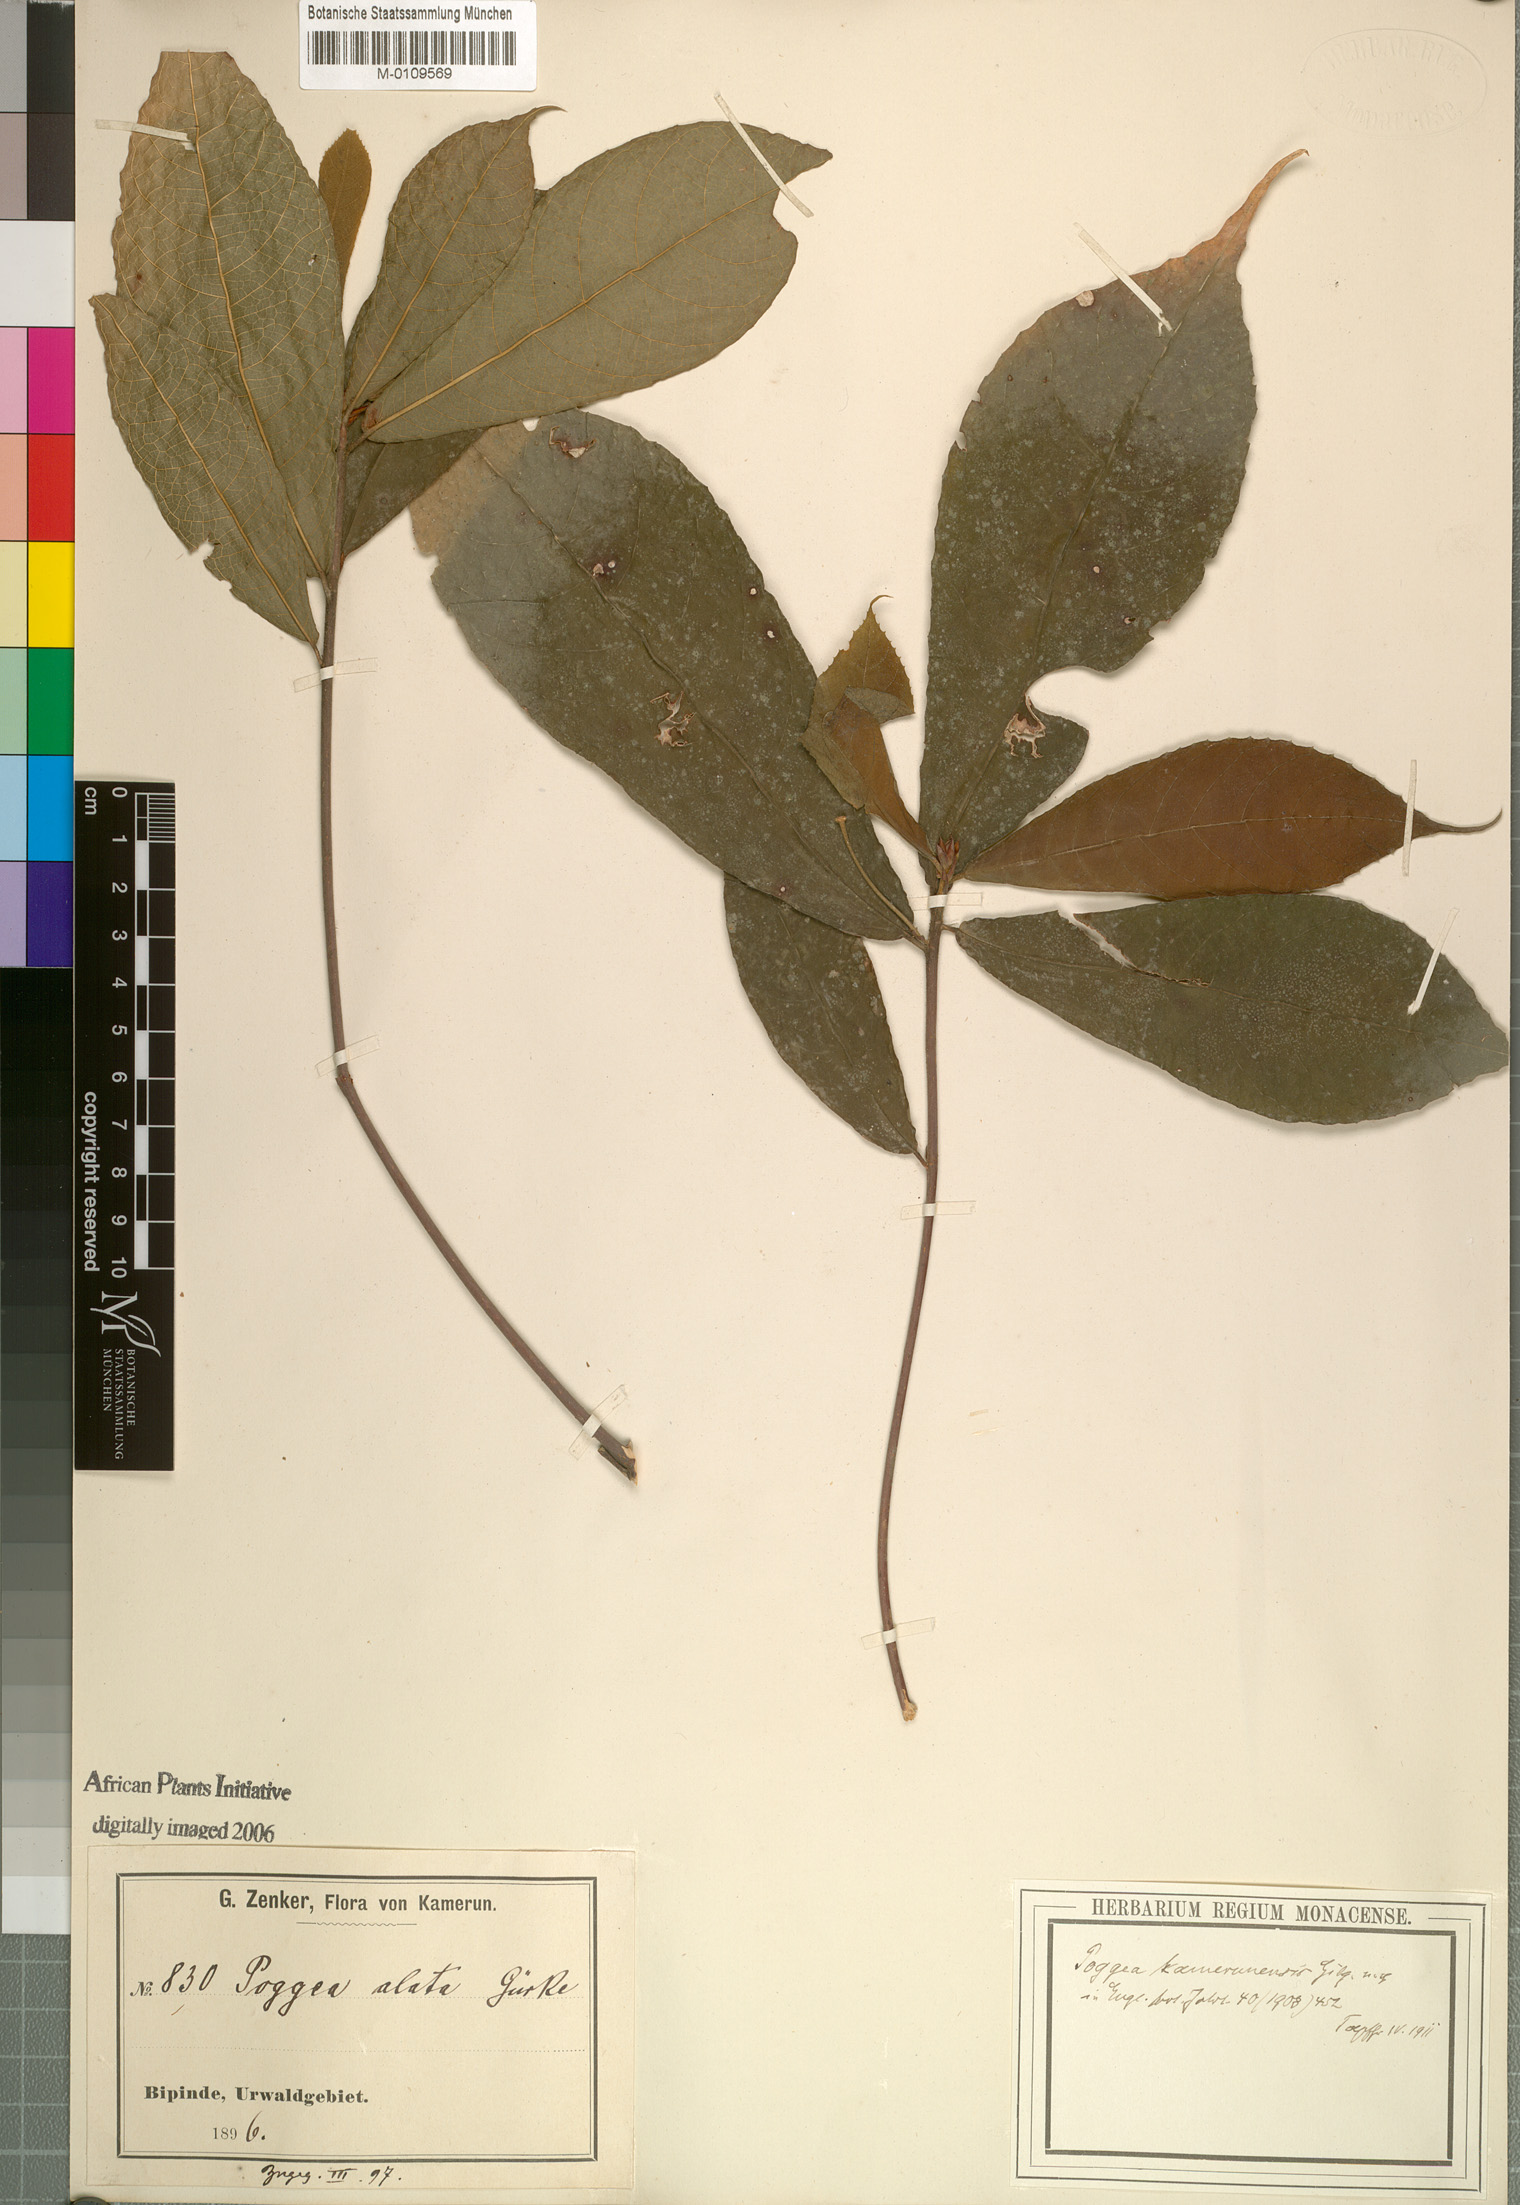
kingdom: Plantae
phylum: Tracheophyta
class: Magnoliopsida
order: Malpighiales
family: Achariaceae
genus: Poggea
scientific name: Poggea alata
